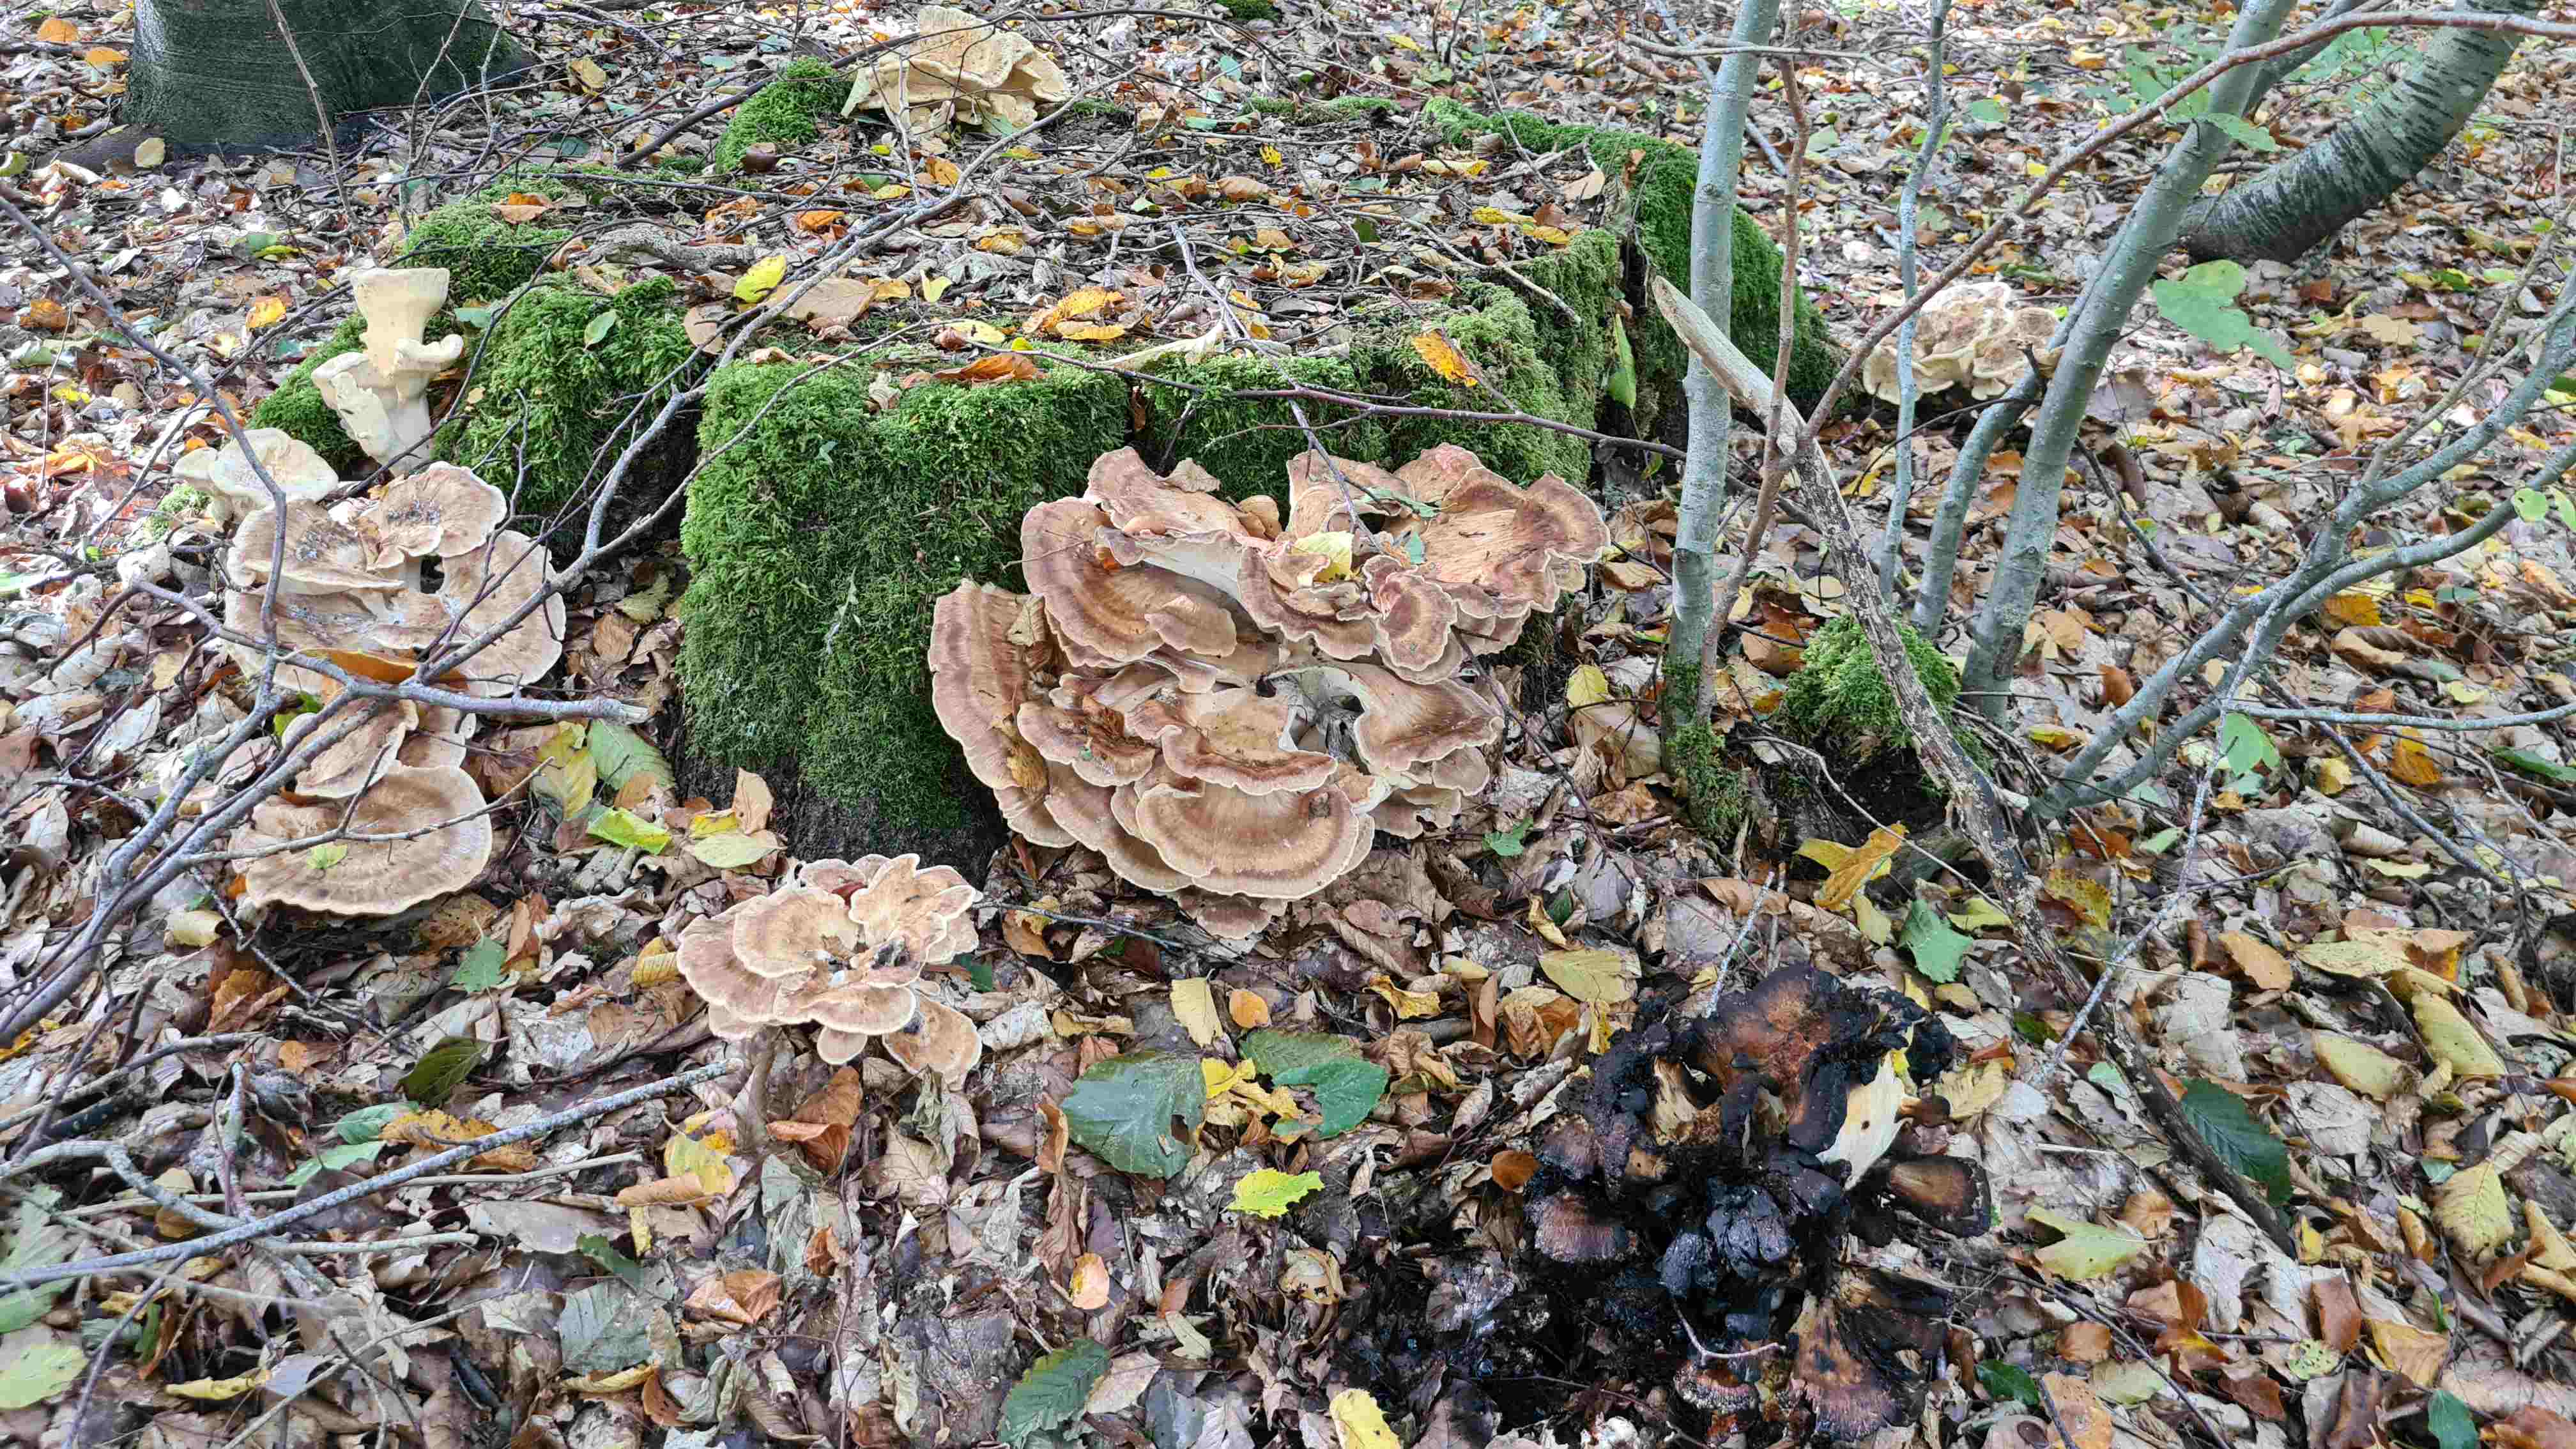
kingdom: Fungi
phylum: Basidiomycota
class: Agaricomycetes
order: Polyporales
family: Meripilaceae
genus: Meripilus
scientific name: Meripilus giganteus
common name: kæmpeporesvamp
